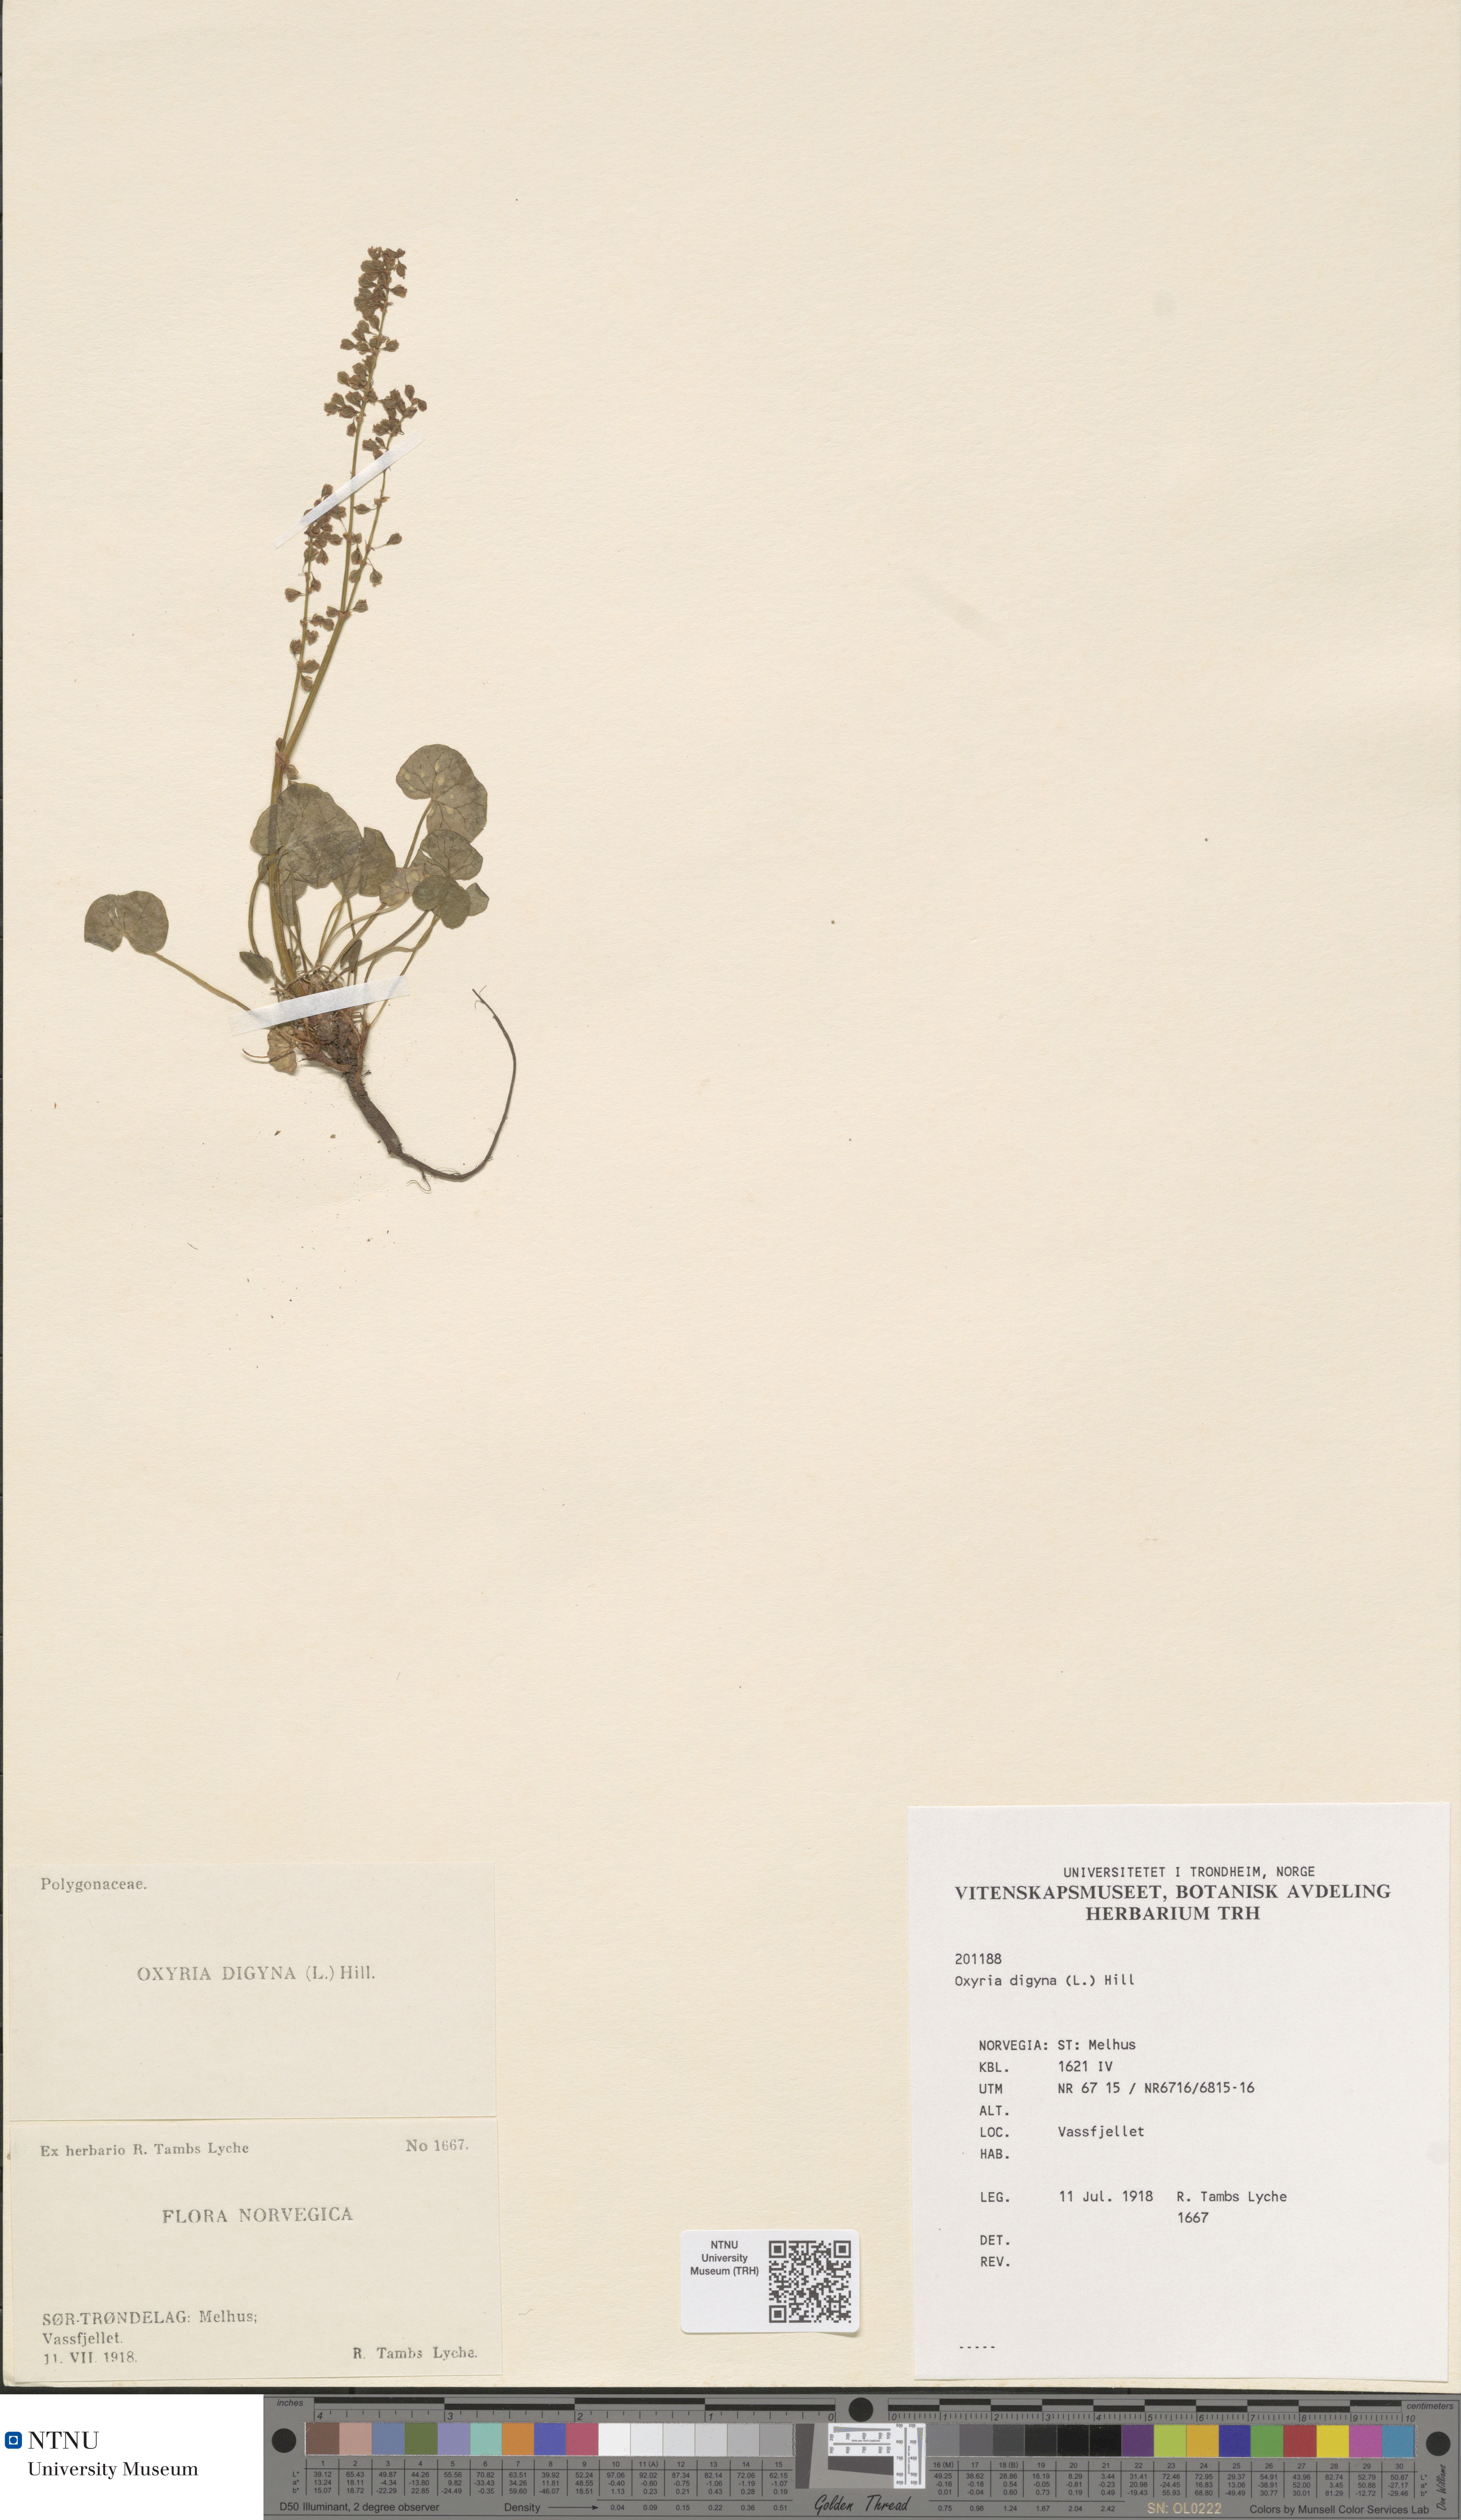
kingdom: Plantae
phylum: Tracheophyta
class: Magnoliopsida
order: Caryophyllales
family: Polygonaceae
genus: Oxyria
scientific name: Oxyria digyna
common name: Alpine mountain-sorrel
